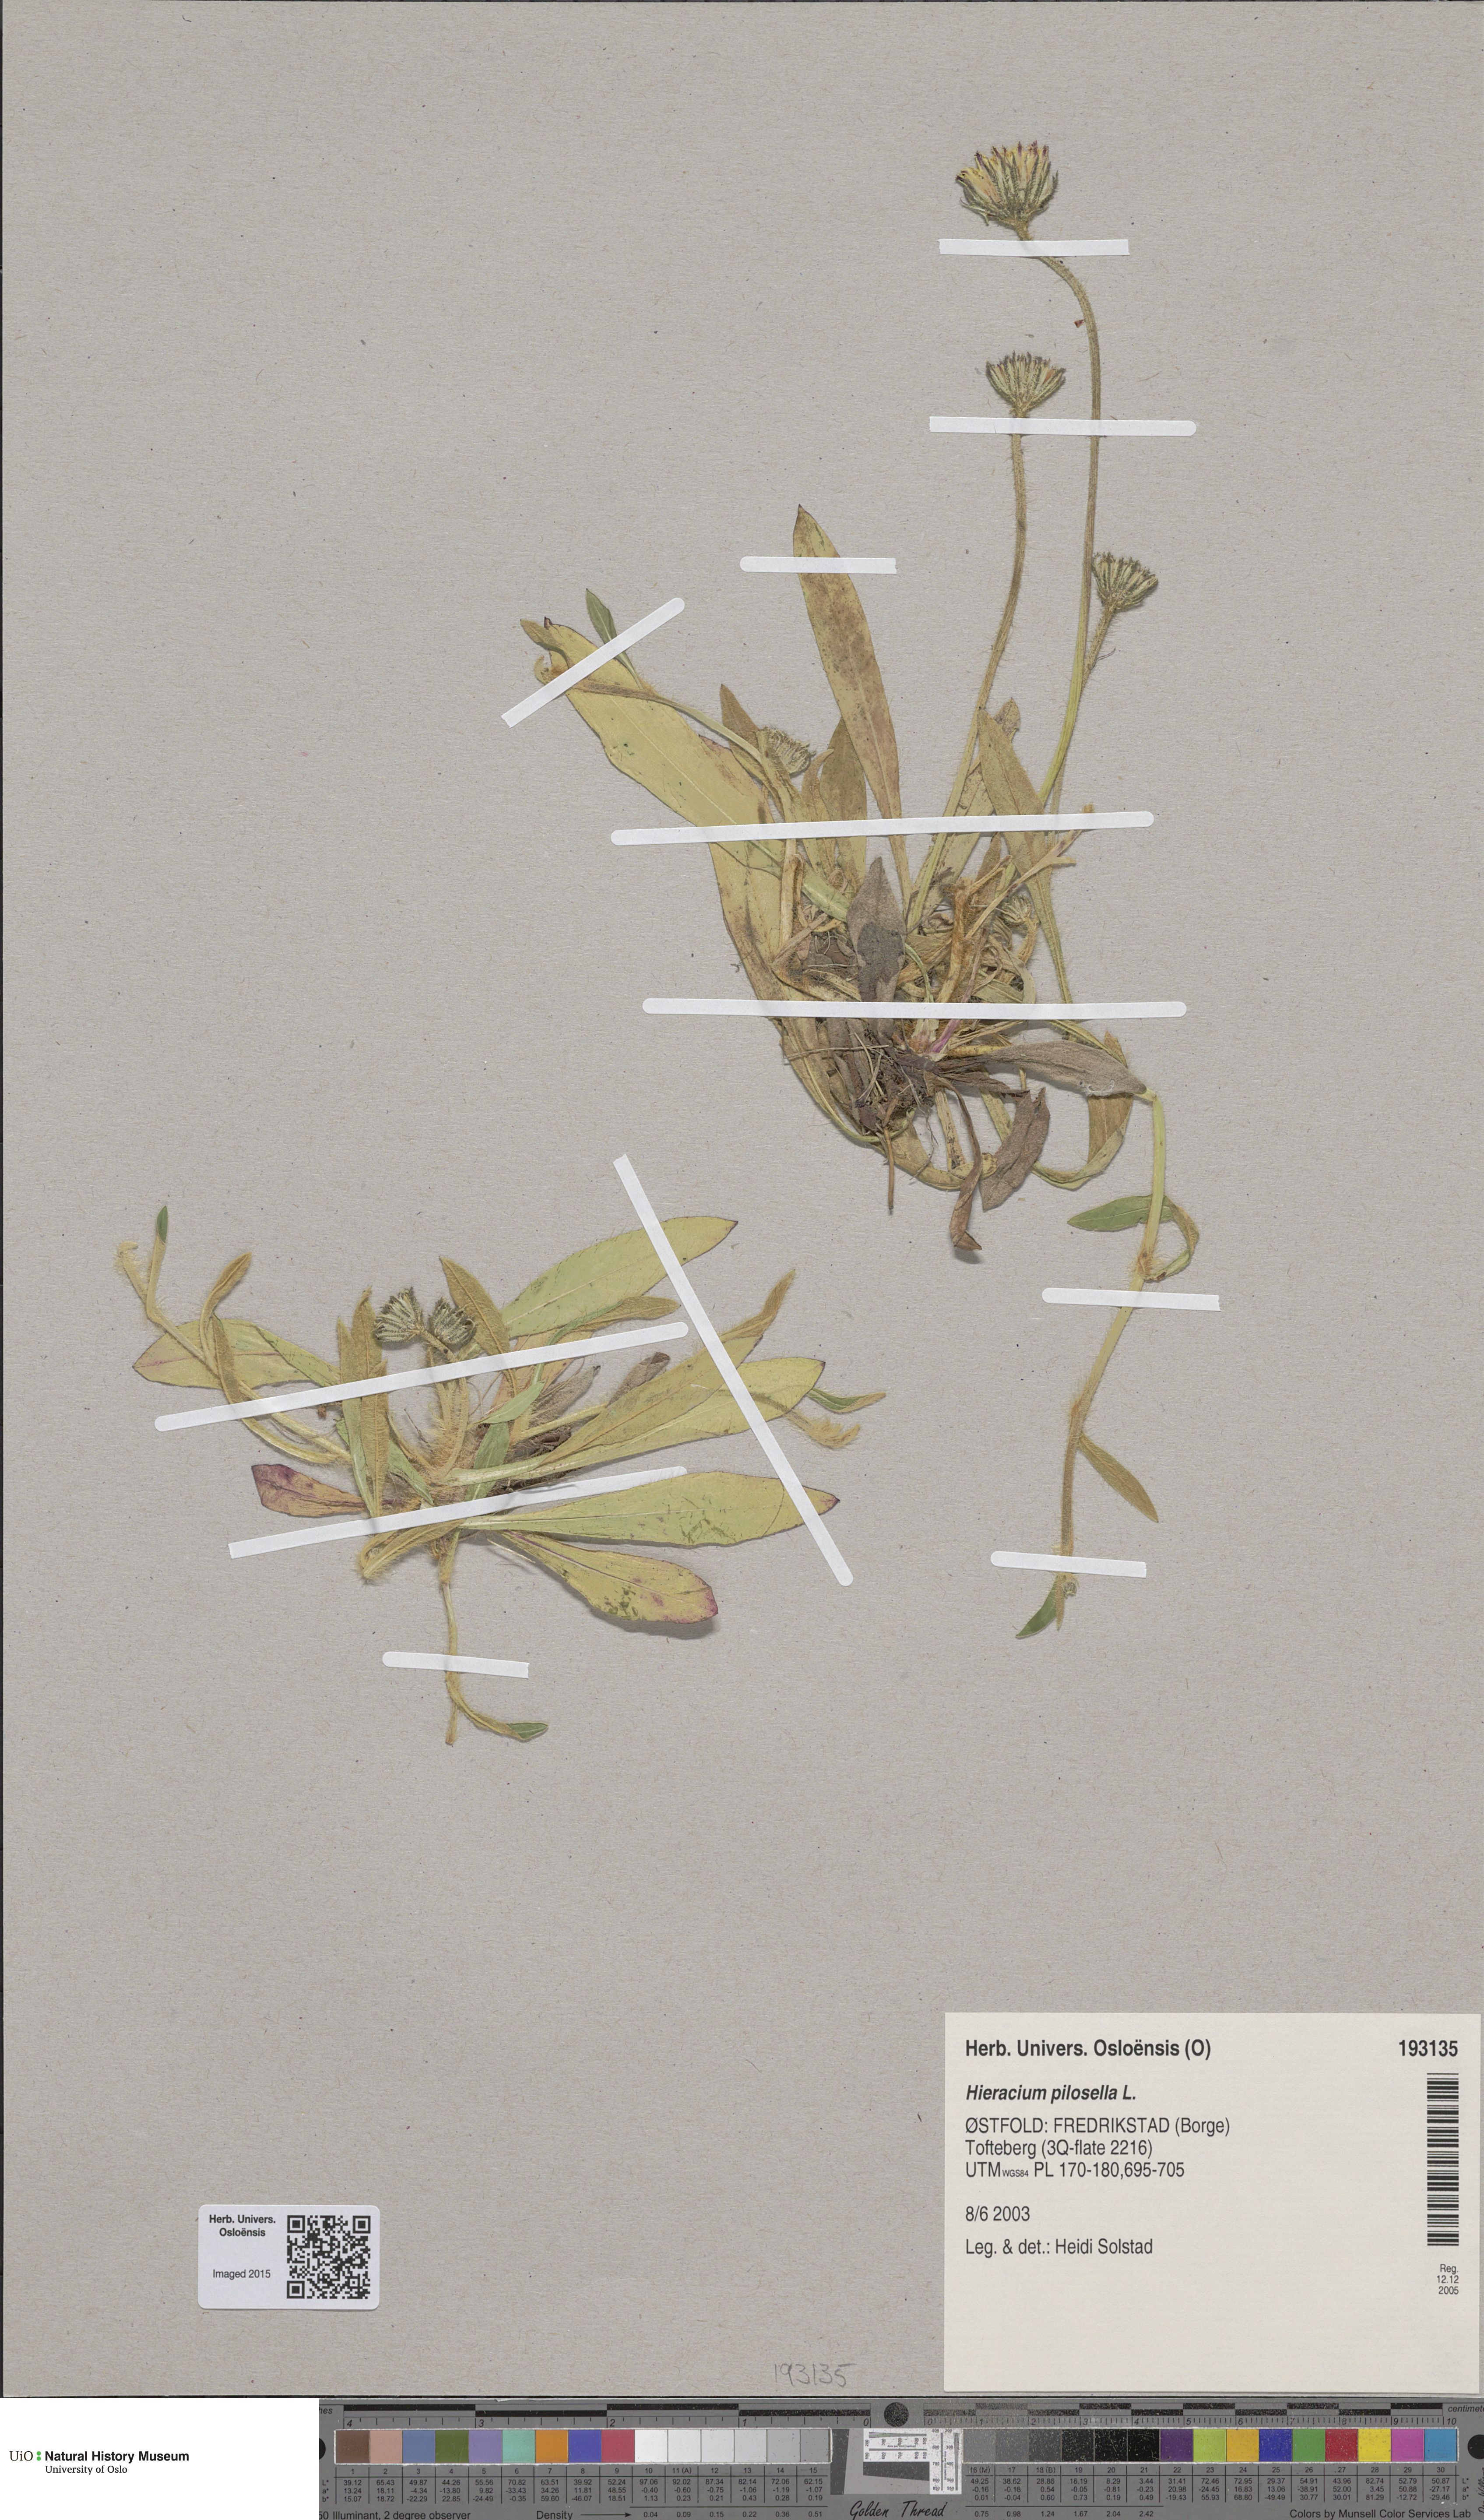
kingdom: Plantae
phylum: Tracheophyta
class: Magnoliopsida
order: Asterales
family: Asteraceae
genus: Pilosella
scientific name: Pilosella officinarum
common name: Mouse-ear hawkweed
